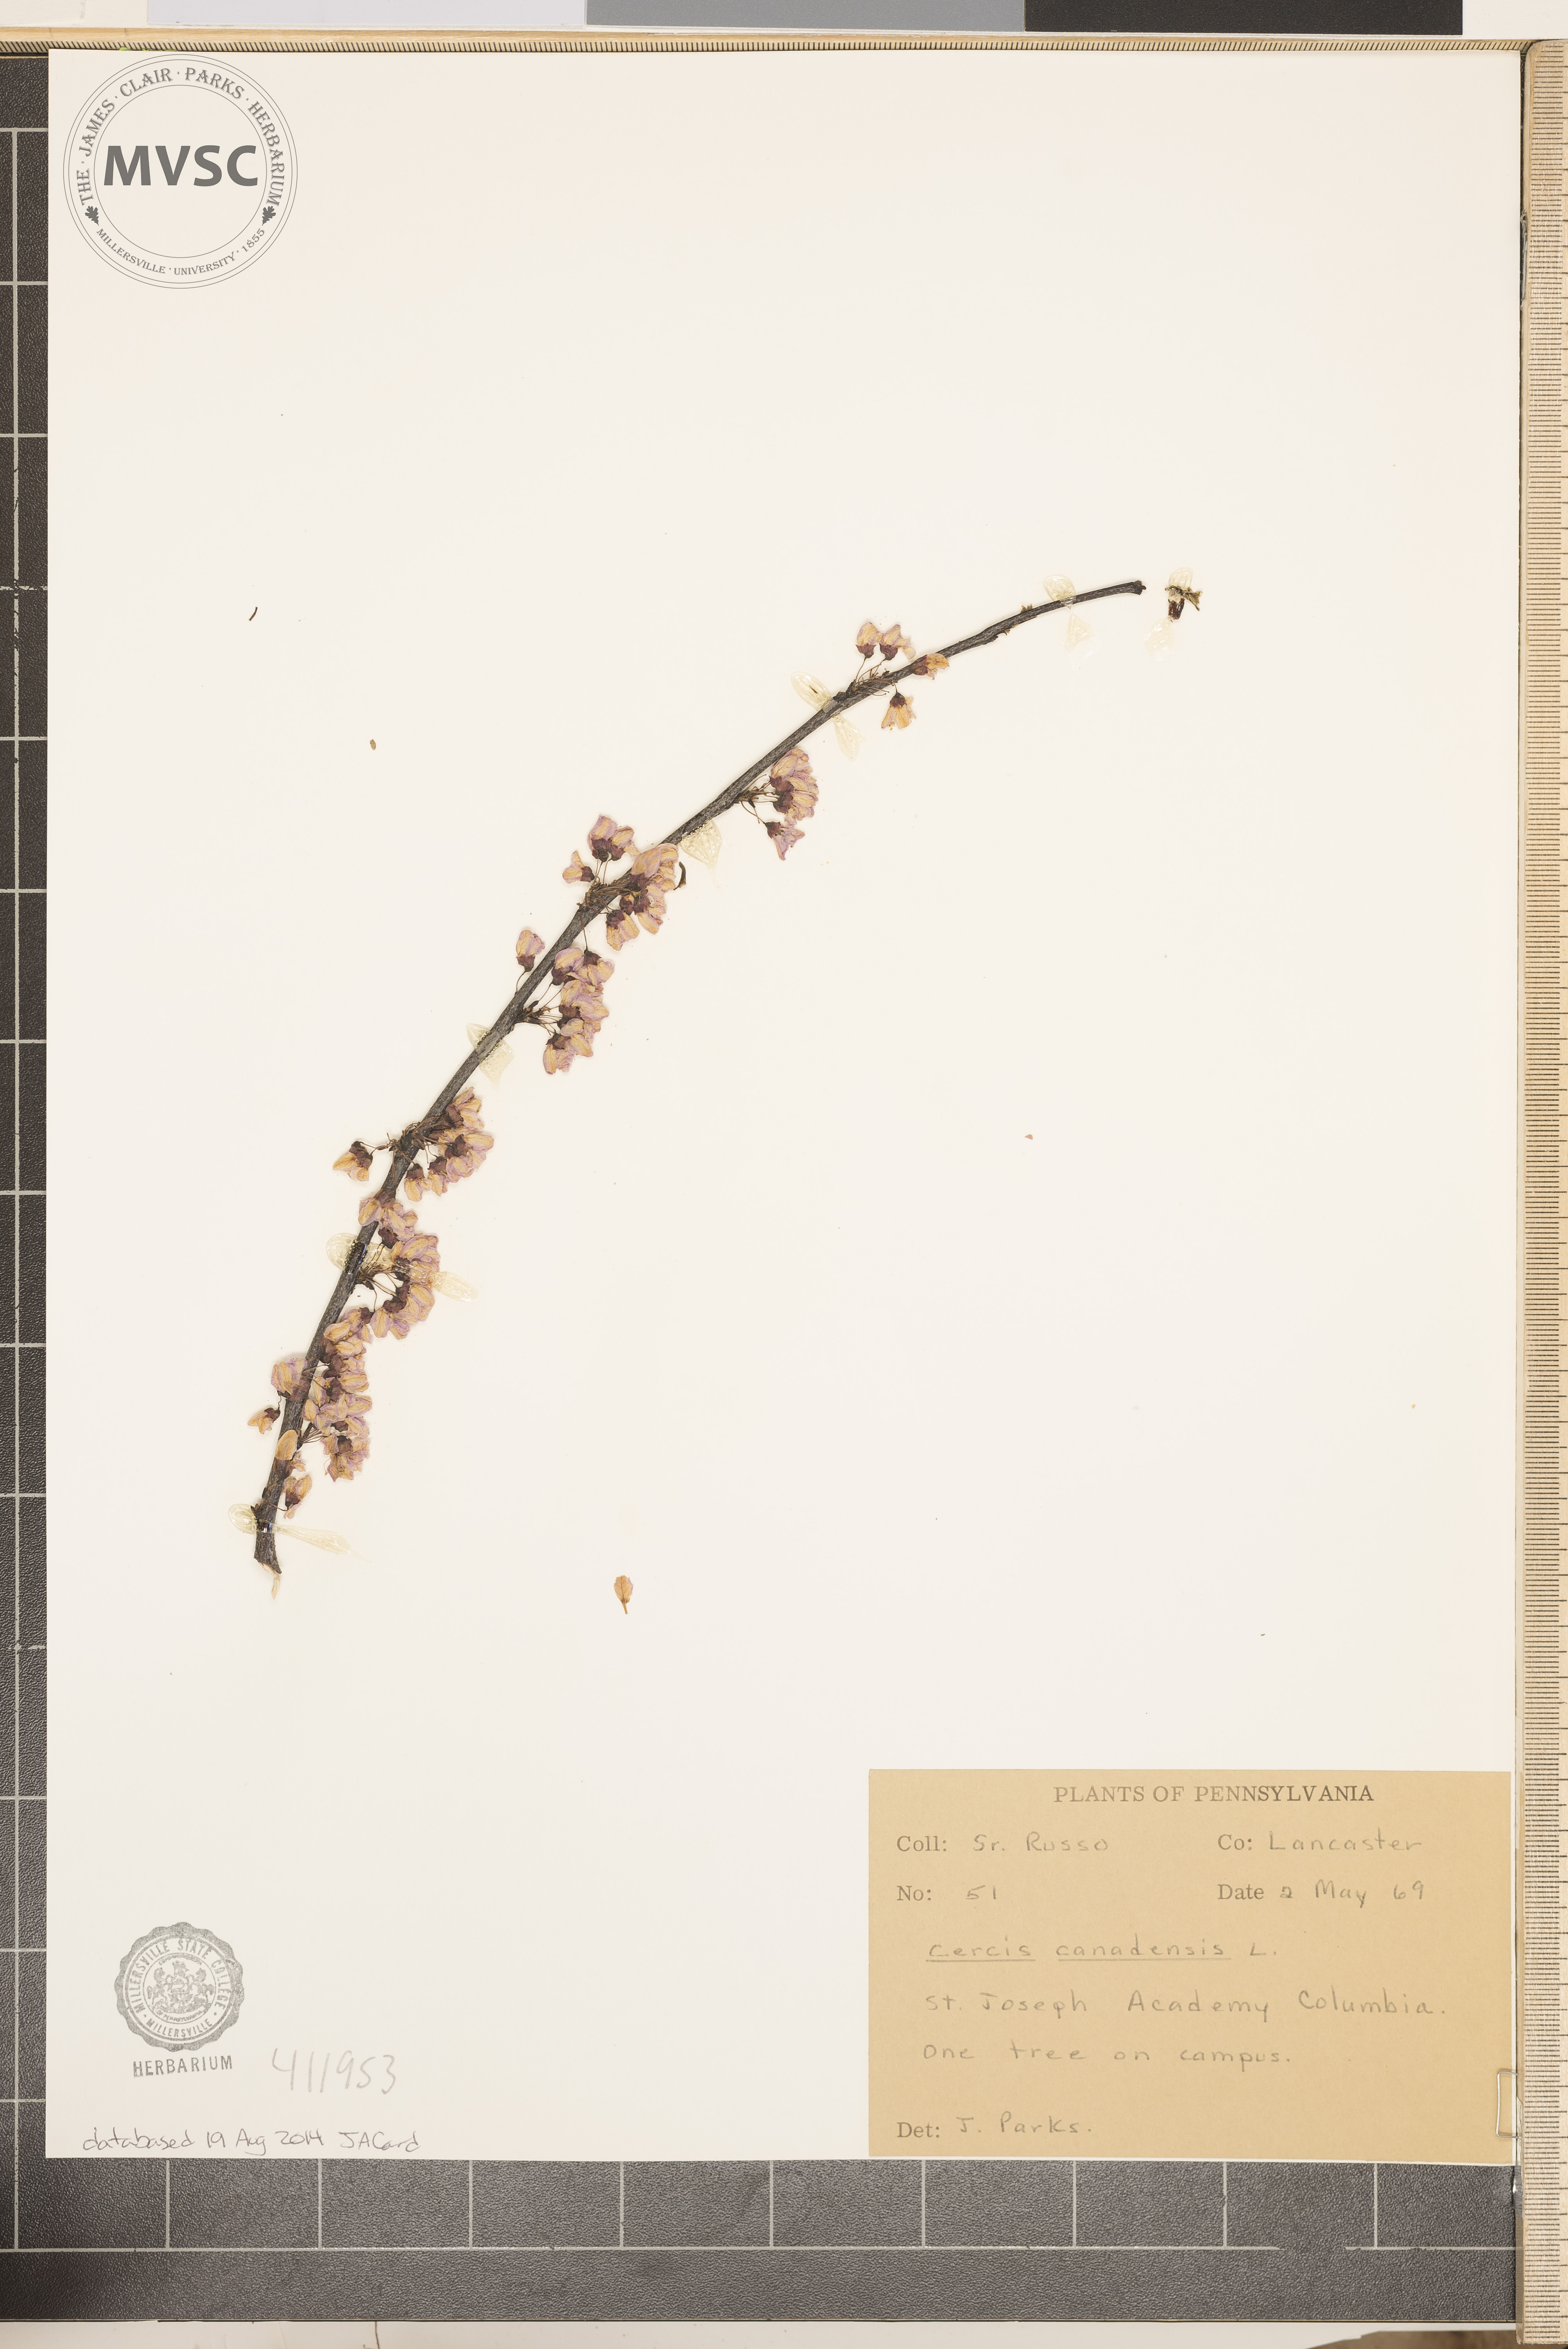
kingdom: Plantae
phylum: Tracheophyta
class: Magnoliopsida
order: Fabales
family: Fabaceae
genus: Cercis
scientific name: Cercis canadensis
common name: Eastern redbud
